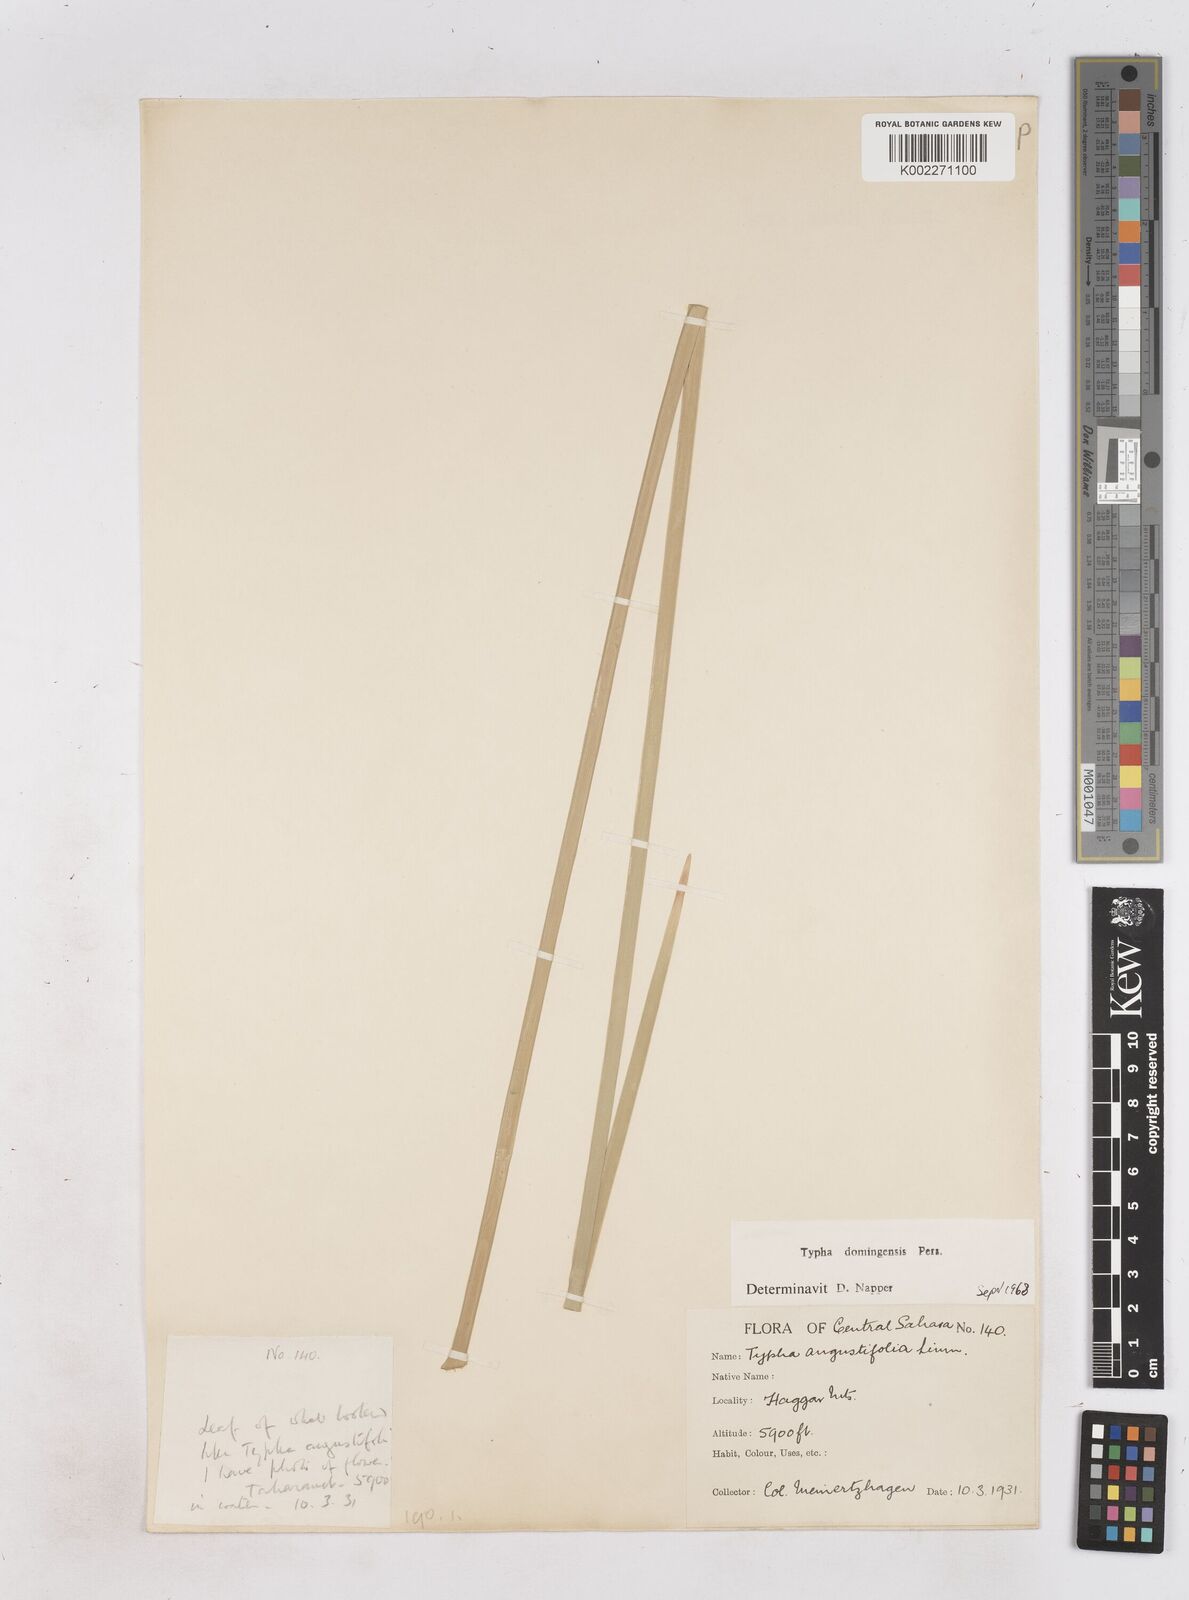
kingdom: Plantae
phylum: Tracheophyta
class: Liliopsida
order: Poales
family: Typhaceae
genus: Typha
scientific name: Typha domingensis
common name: Southern cattail
